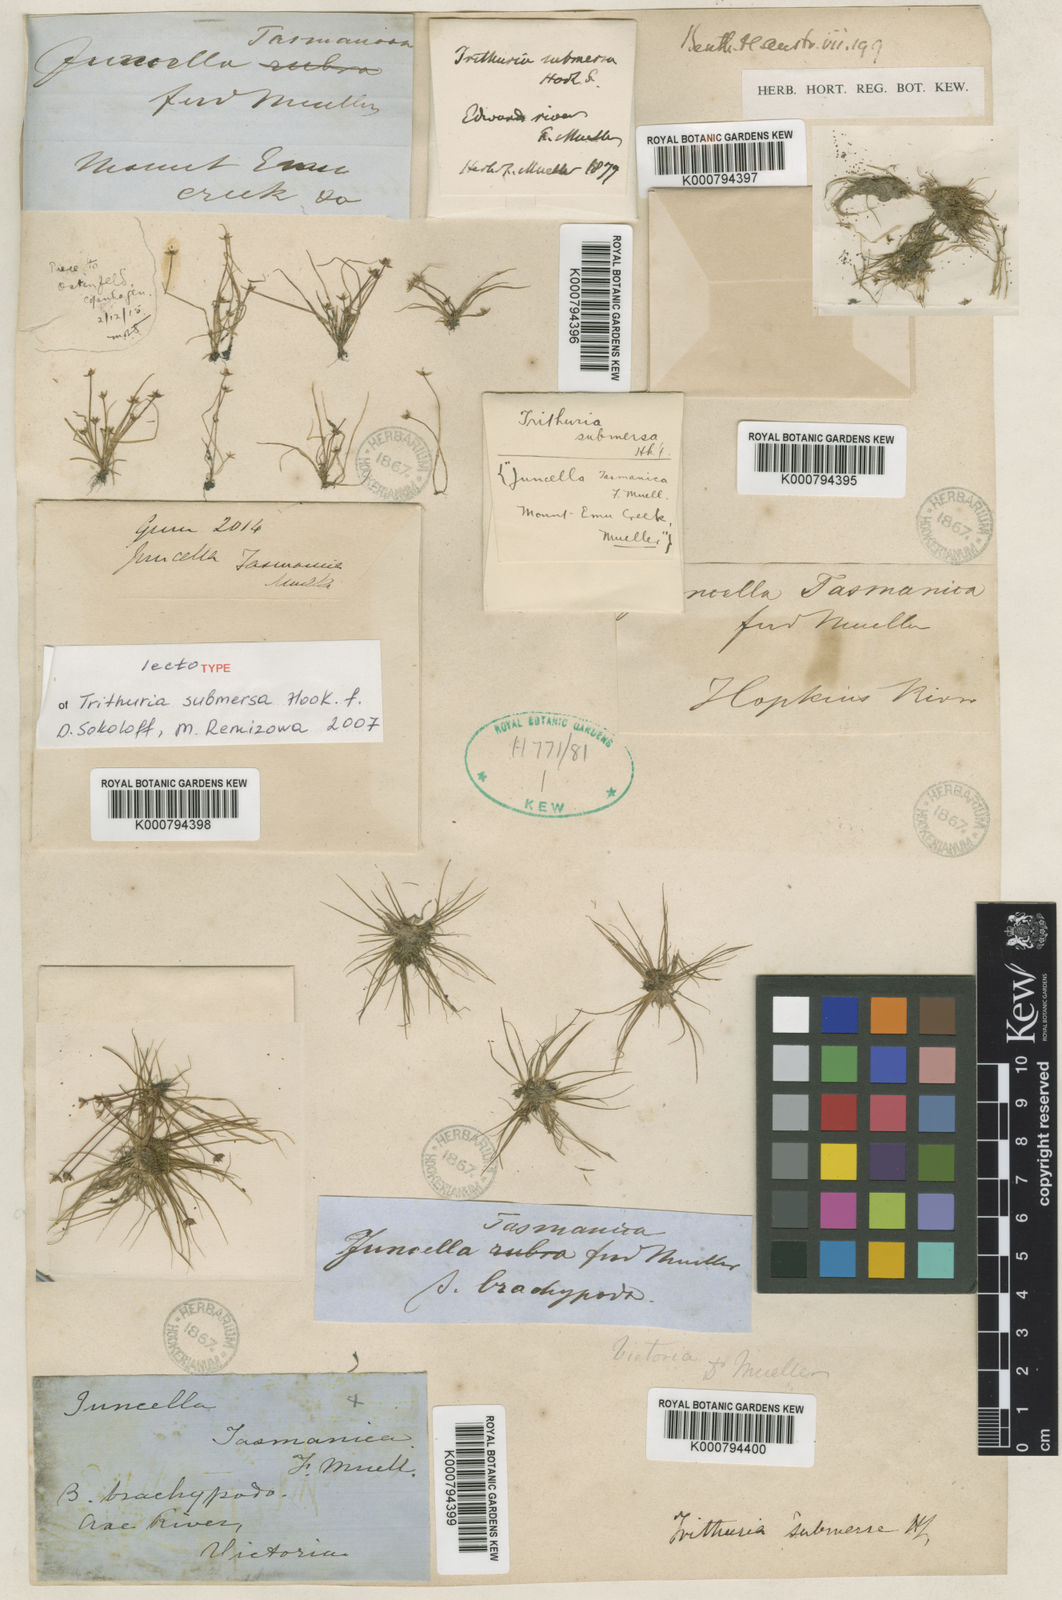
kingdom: Plantae
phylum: Tracheophyta
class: Magnoliopsida
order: Nymphaeales
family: Hydatellaceae
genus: Trithuria
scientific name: Trithuria submersa
